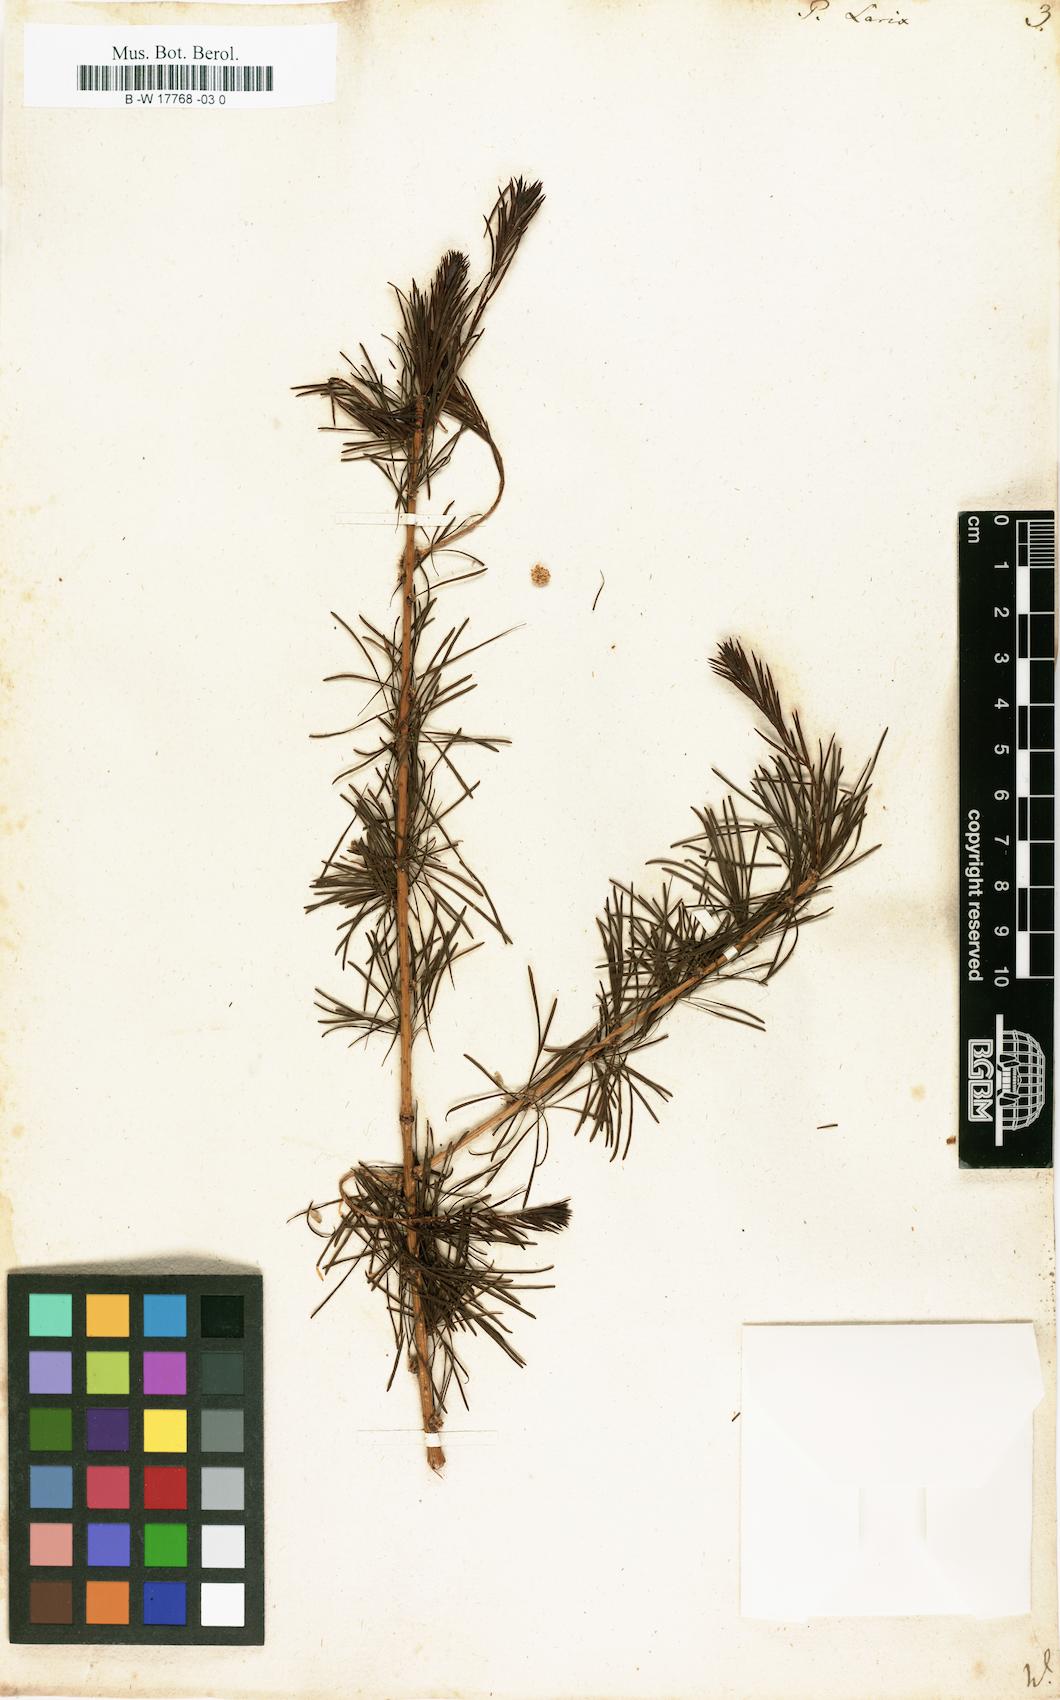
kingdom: Plantae
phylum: Tracheophyta
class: Pinopsida
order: Pinales
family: Pinaceae
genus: Larix
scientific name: Larix decidua
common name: European larch
